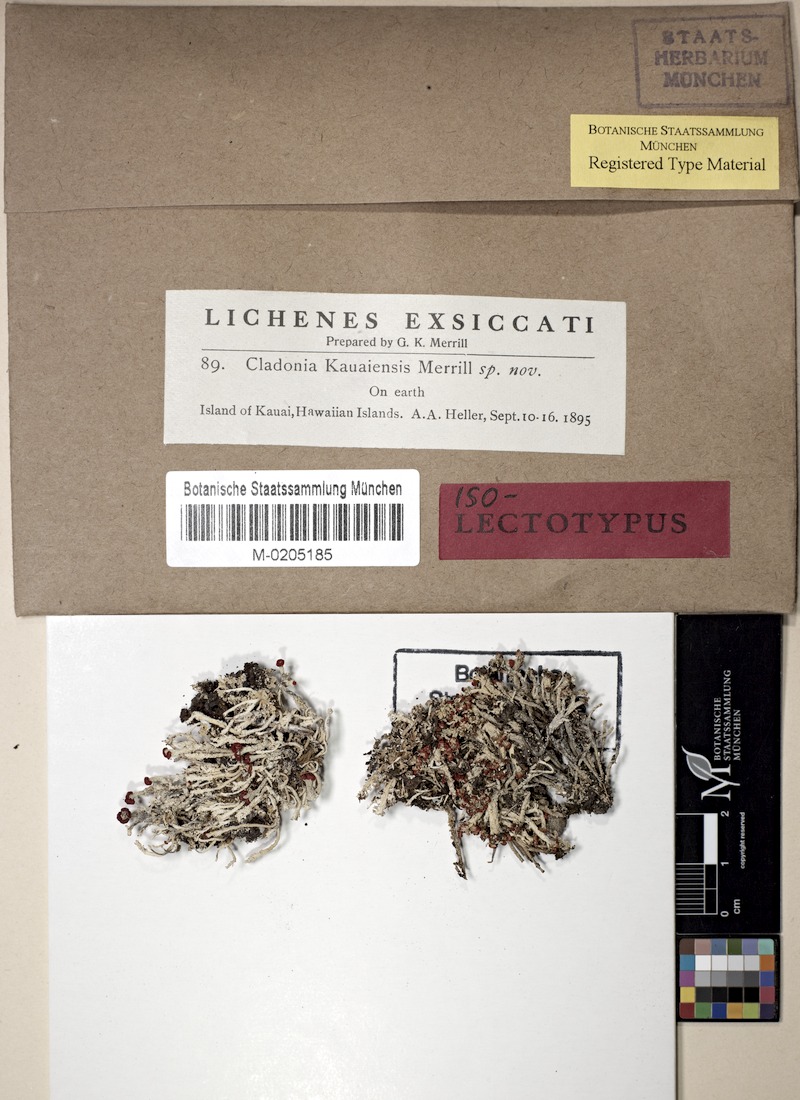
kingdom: Fungi
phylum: Ascomycota
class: Lecanoromycetes
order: Lecanorales
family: Cladoniaceae
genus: Cladonia
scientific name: Cladonia kauaiensis
